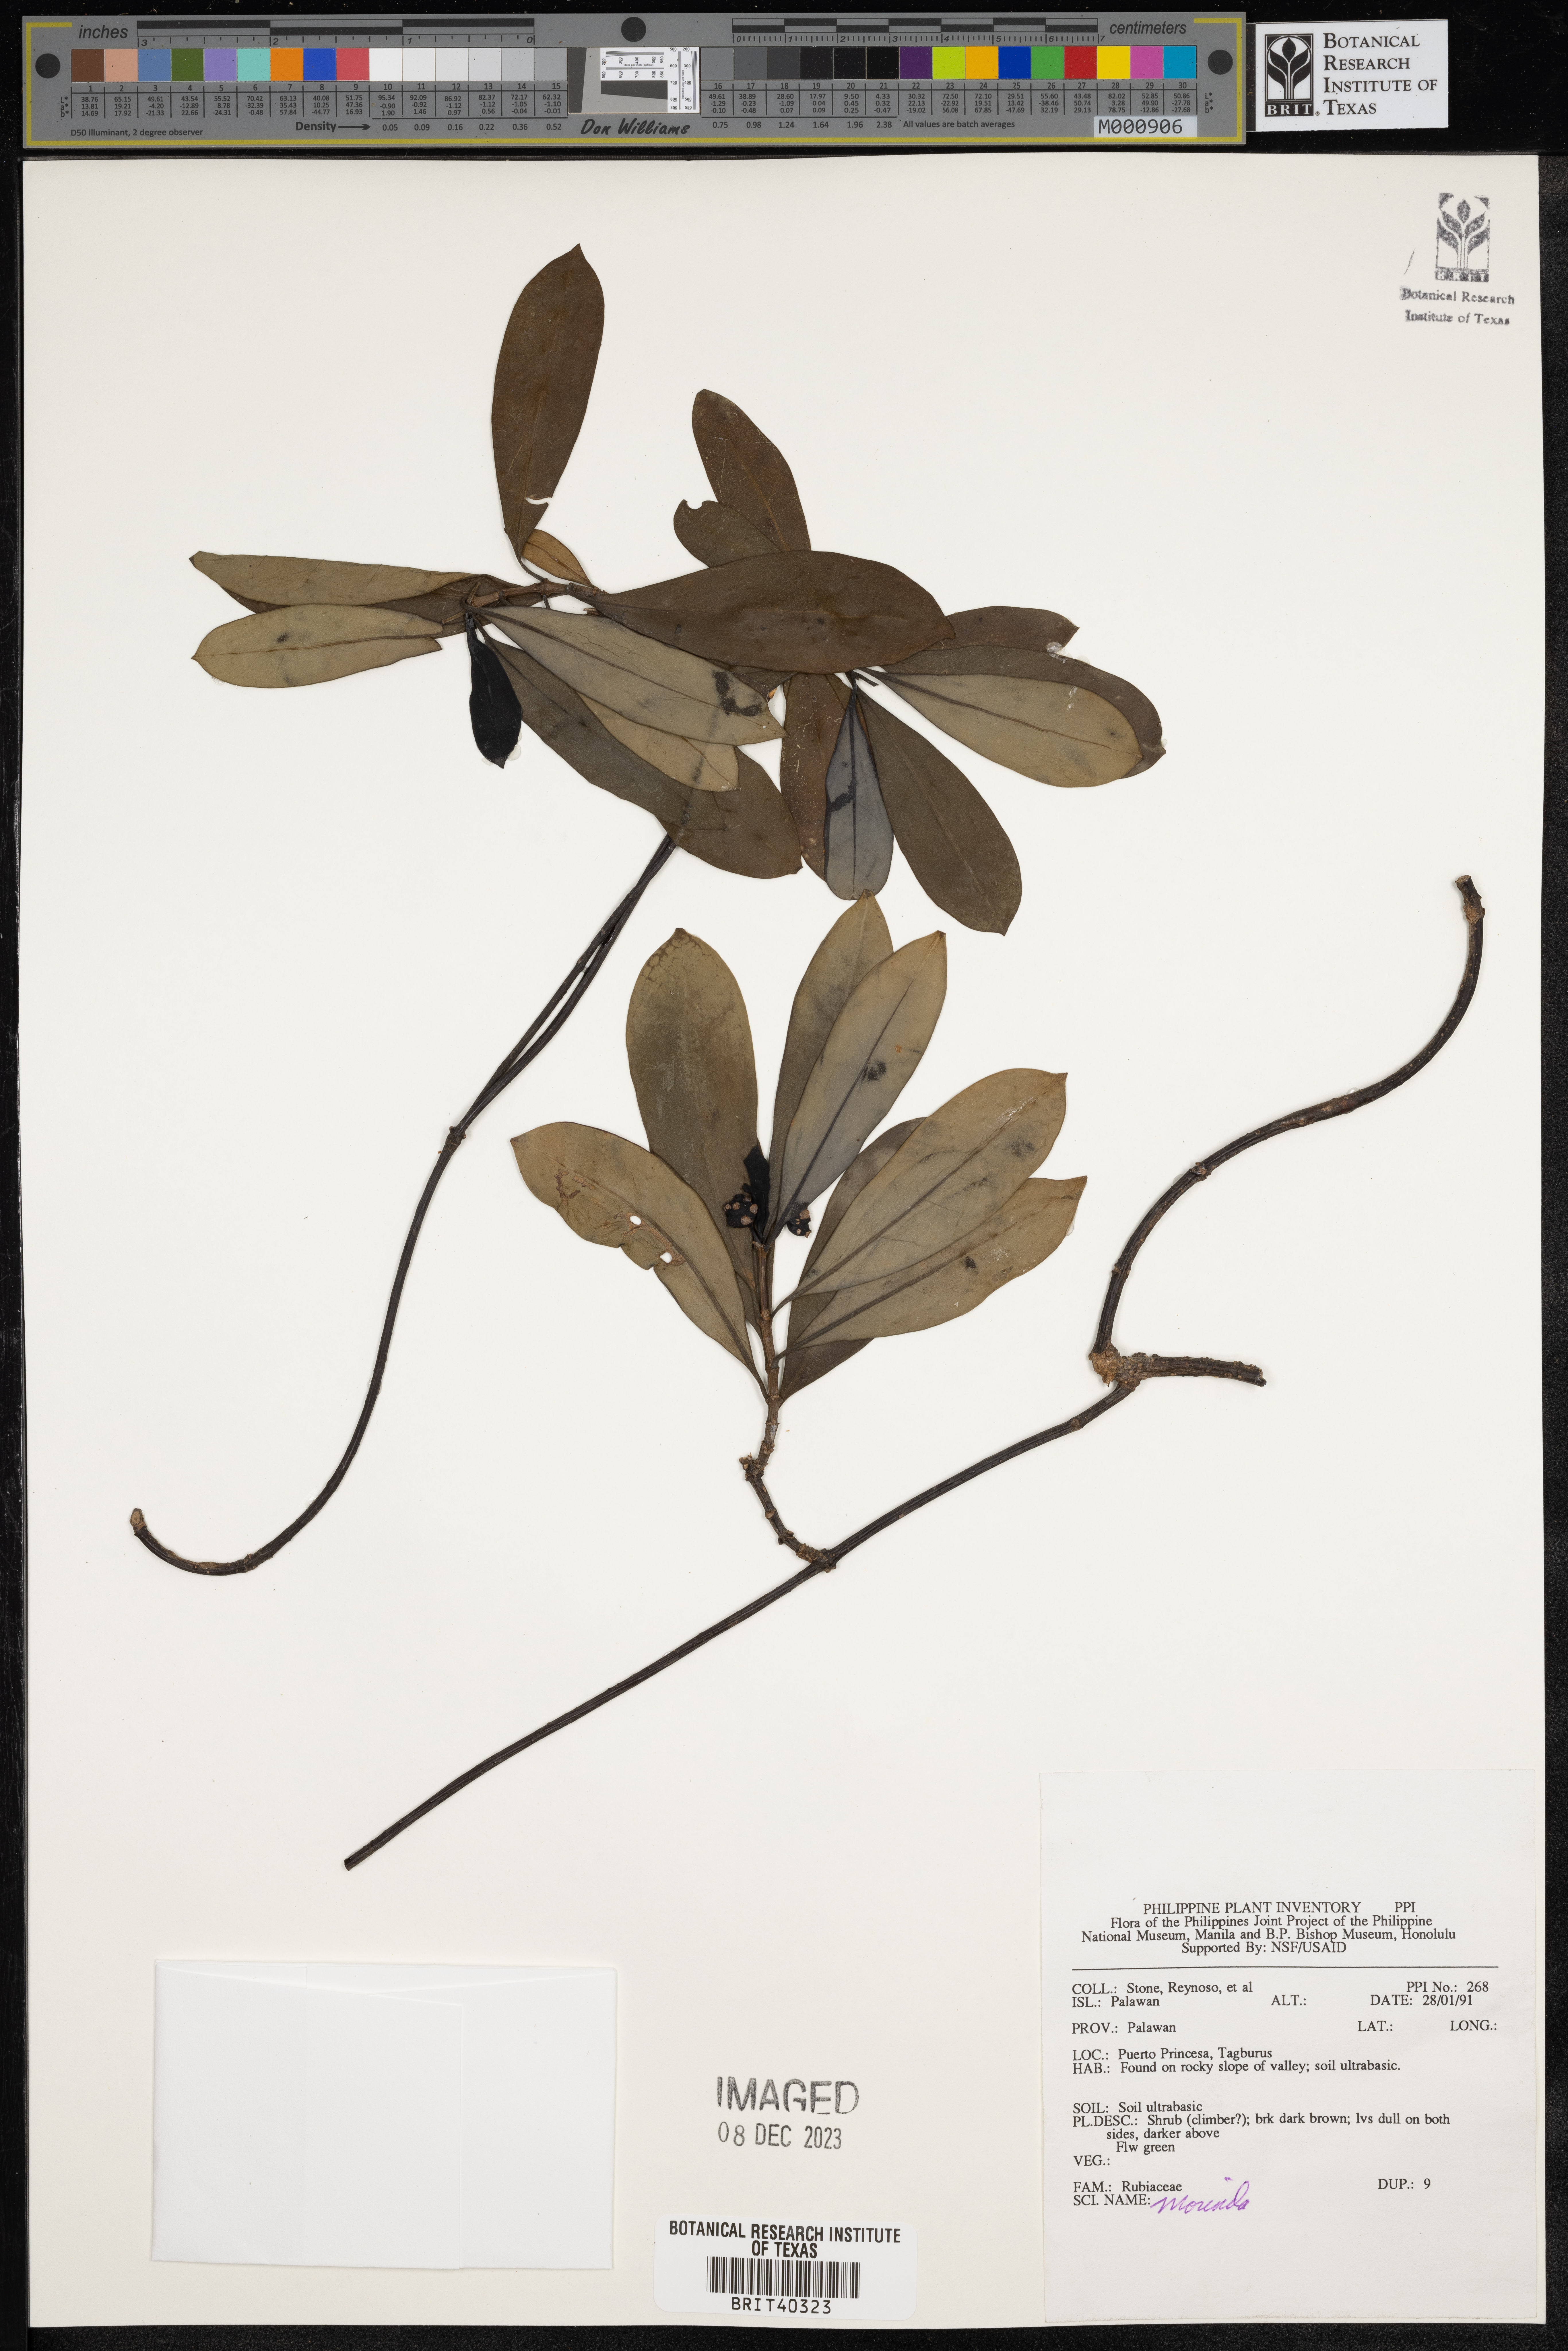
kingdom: Plantae
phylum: Tracheophyta
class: Magnoliopsida
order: Gentianales
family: Rubiaceae
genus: Morinda
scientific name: Morinda
